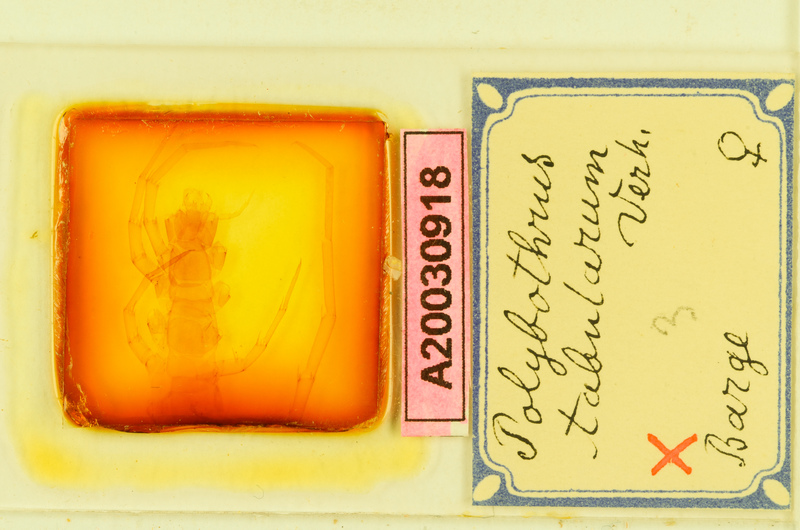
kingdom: Animalia
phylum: Arthropoda
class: Chilopoda
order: Lithobiomorpha
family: Lithobiidae
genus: Polybothrus
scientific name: Polybothrus tabularum
